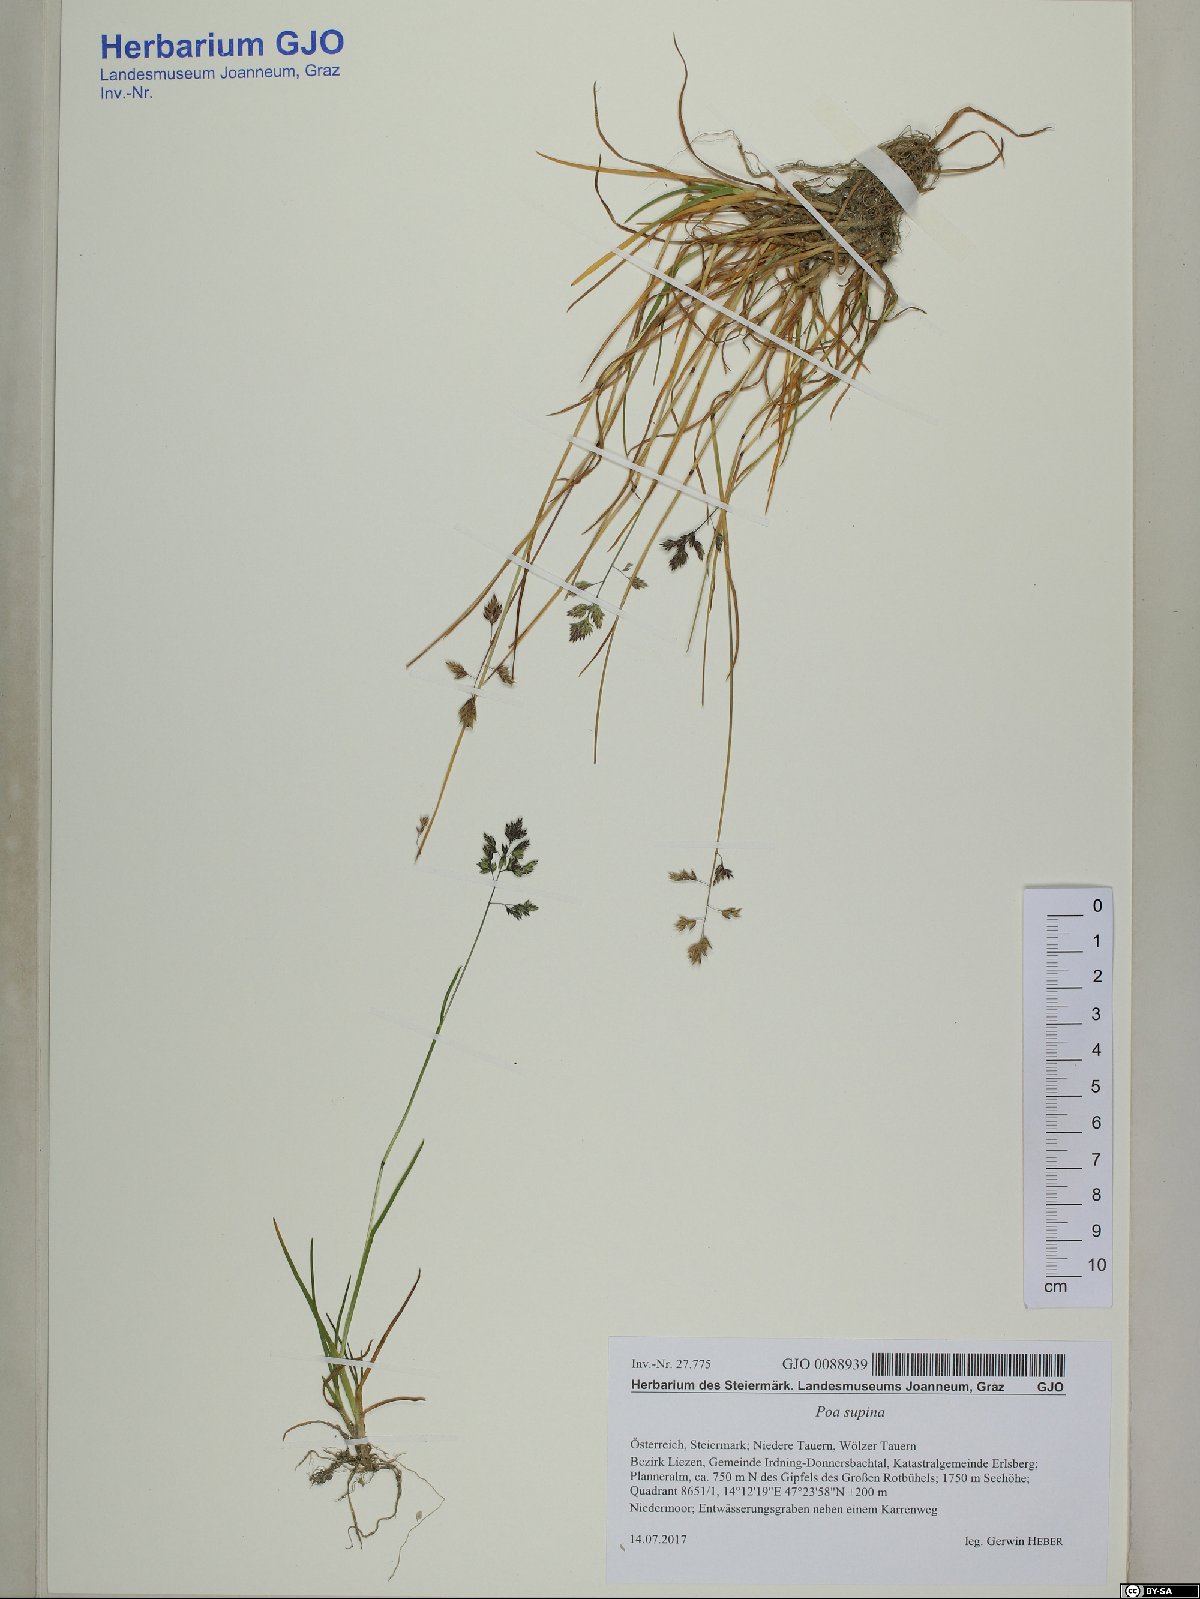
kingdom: Plantae
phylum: Tracheophyta
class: Liliopsida
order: Poales
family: Poaceae
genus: Poa
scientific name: Poa supina
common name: Supina bluegrass
